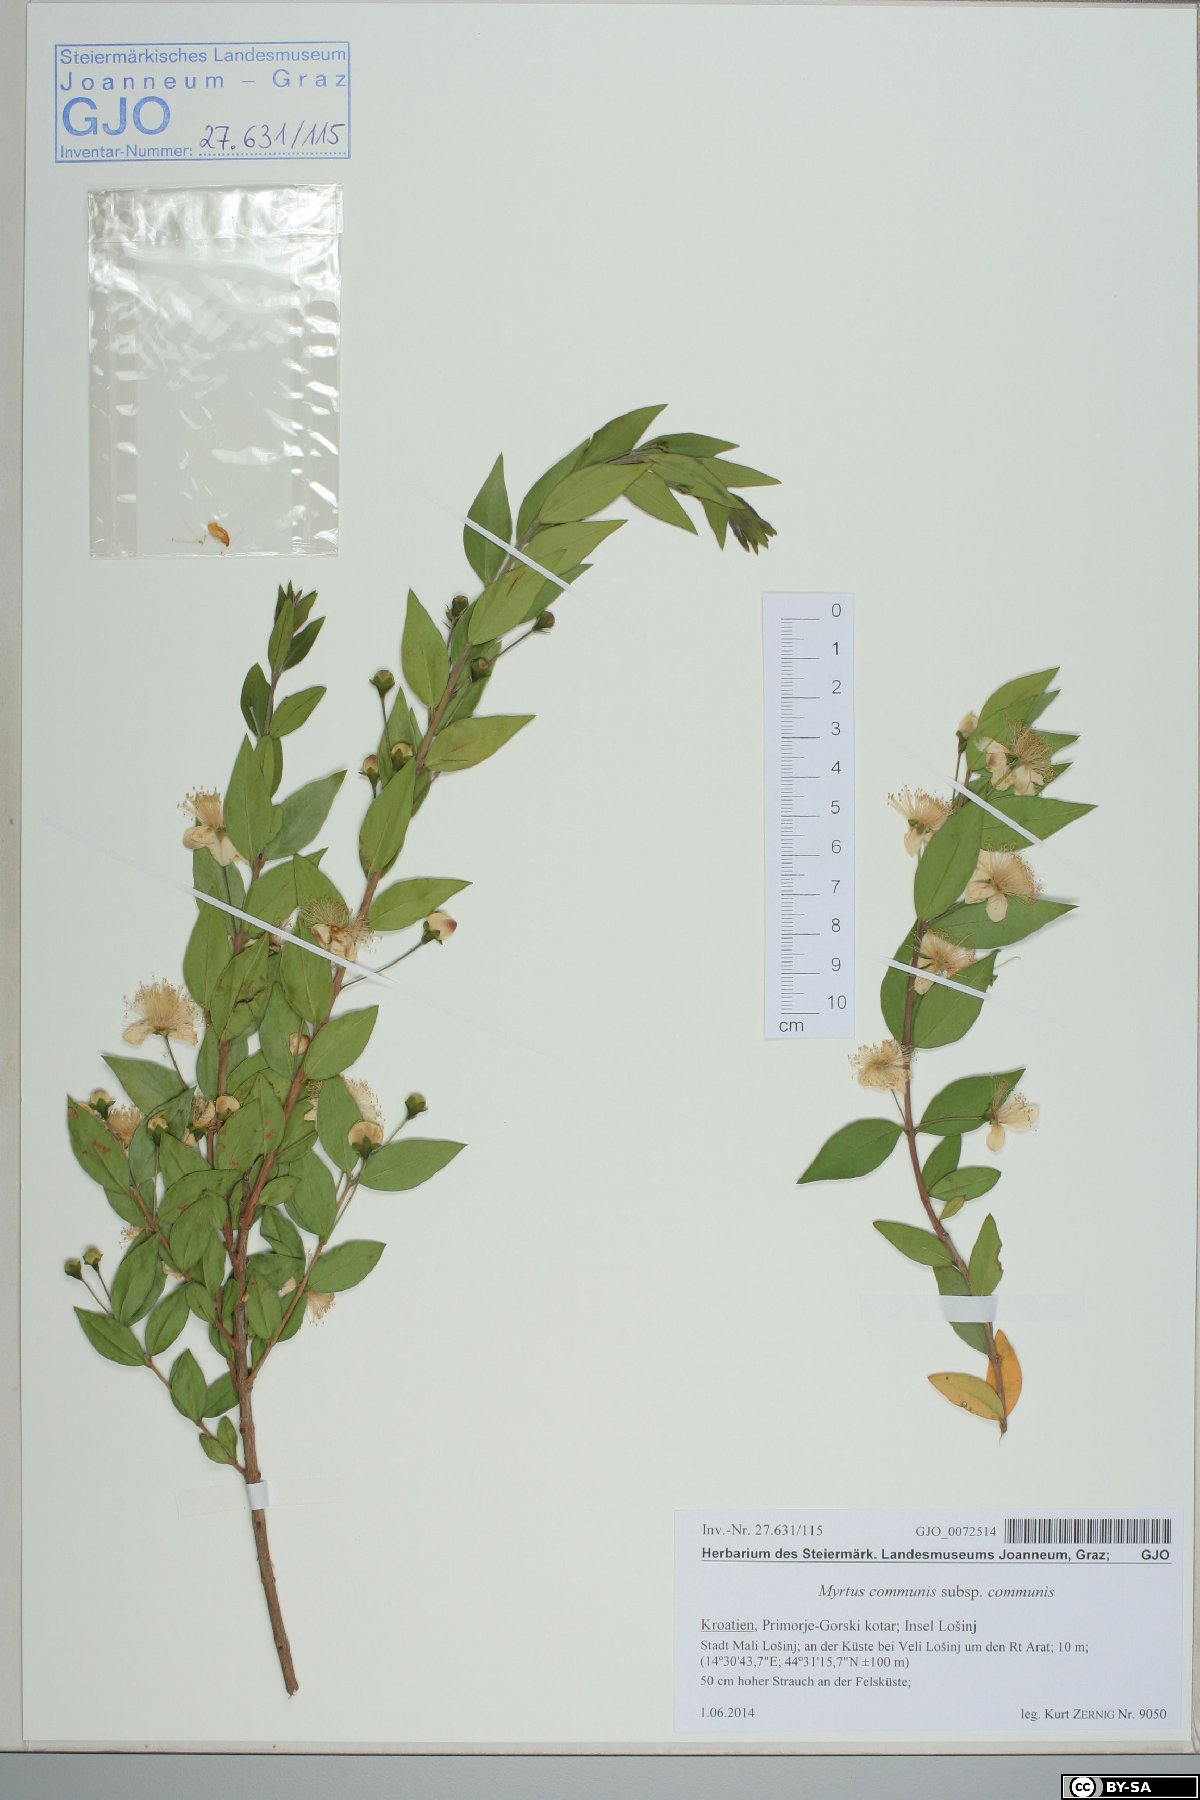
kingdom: Plantae
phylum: Tracheophyta
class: Magnoliopsida
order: Myrtales
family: Myrtaceae
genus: Myrtus
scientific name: Myrtus communis
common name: Myrtle
